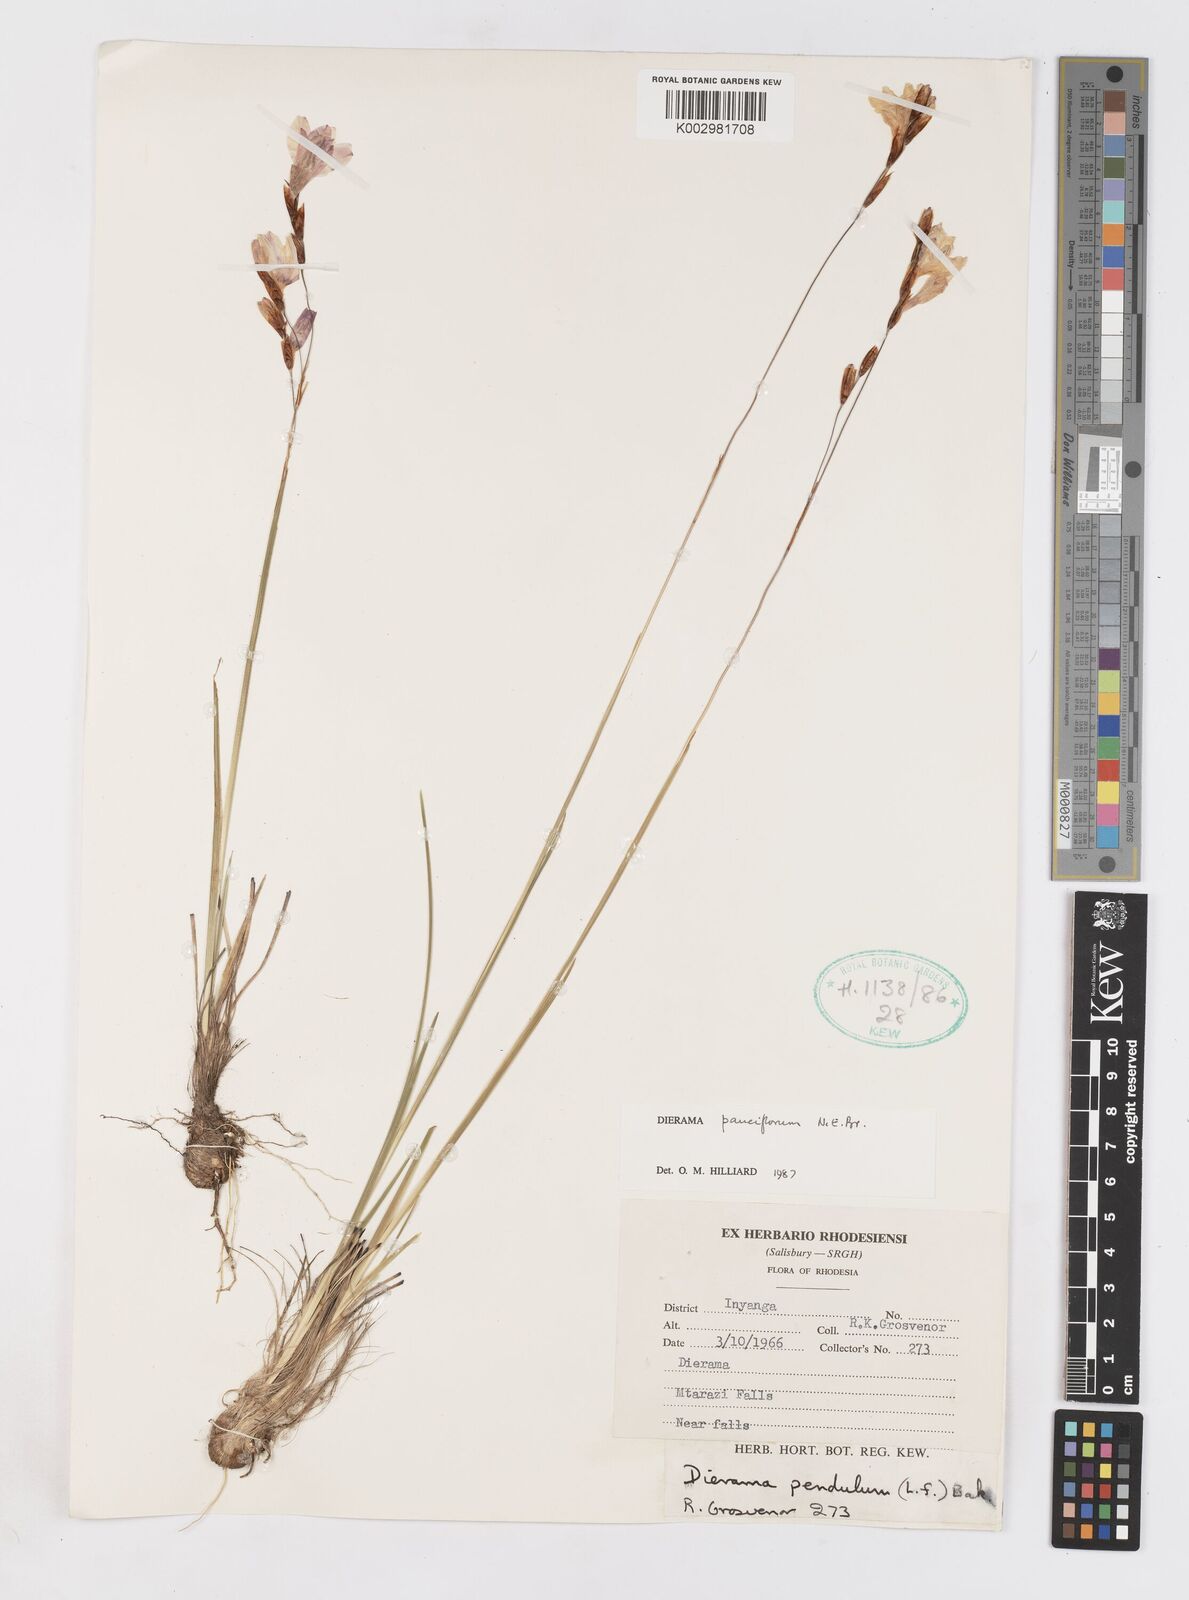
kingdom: Plantae
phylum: Tracheophyta
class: Liliopsida
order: Asparagales
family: Iridaceae
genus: Dierama
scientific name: Dierama pauciflorum
